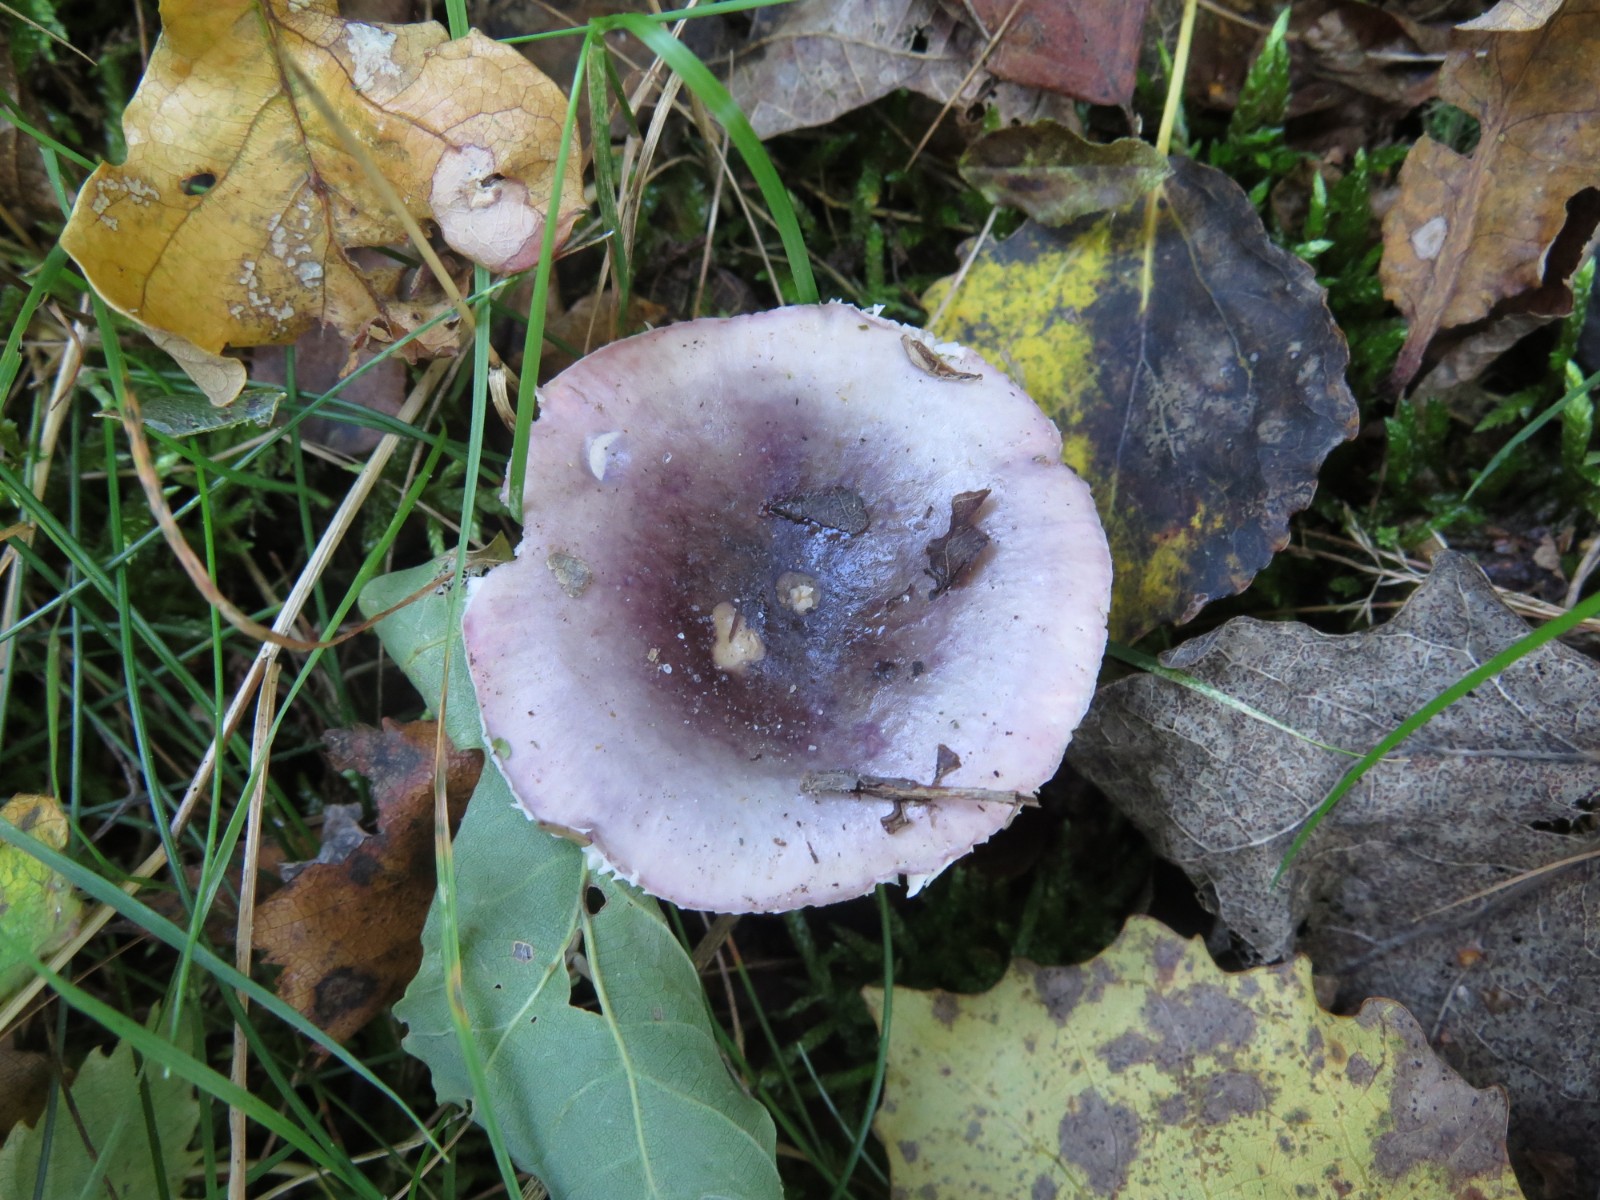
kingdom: Fungi
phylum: Basidiomycota
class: Agaricomycetes
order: Russulales
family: Russulaceae
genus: Russula
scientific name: Russula fragilis
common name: savbladet skørhat
